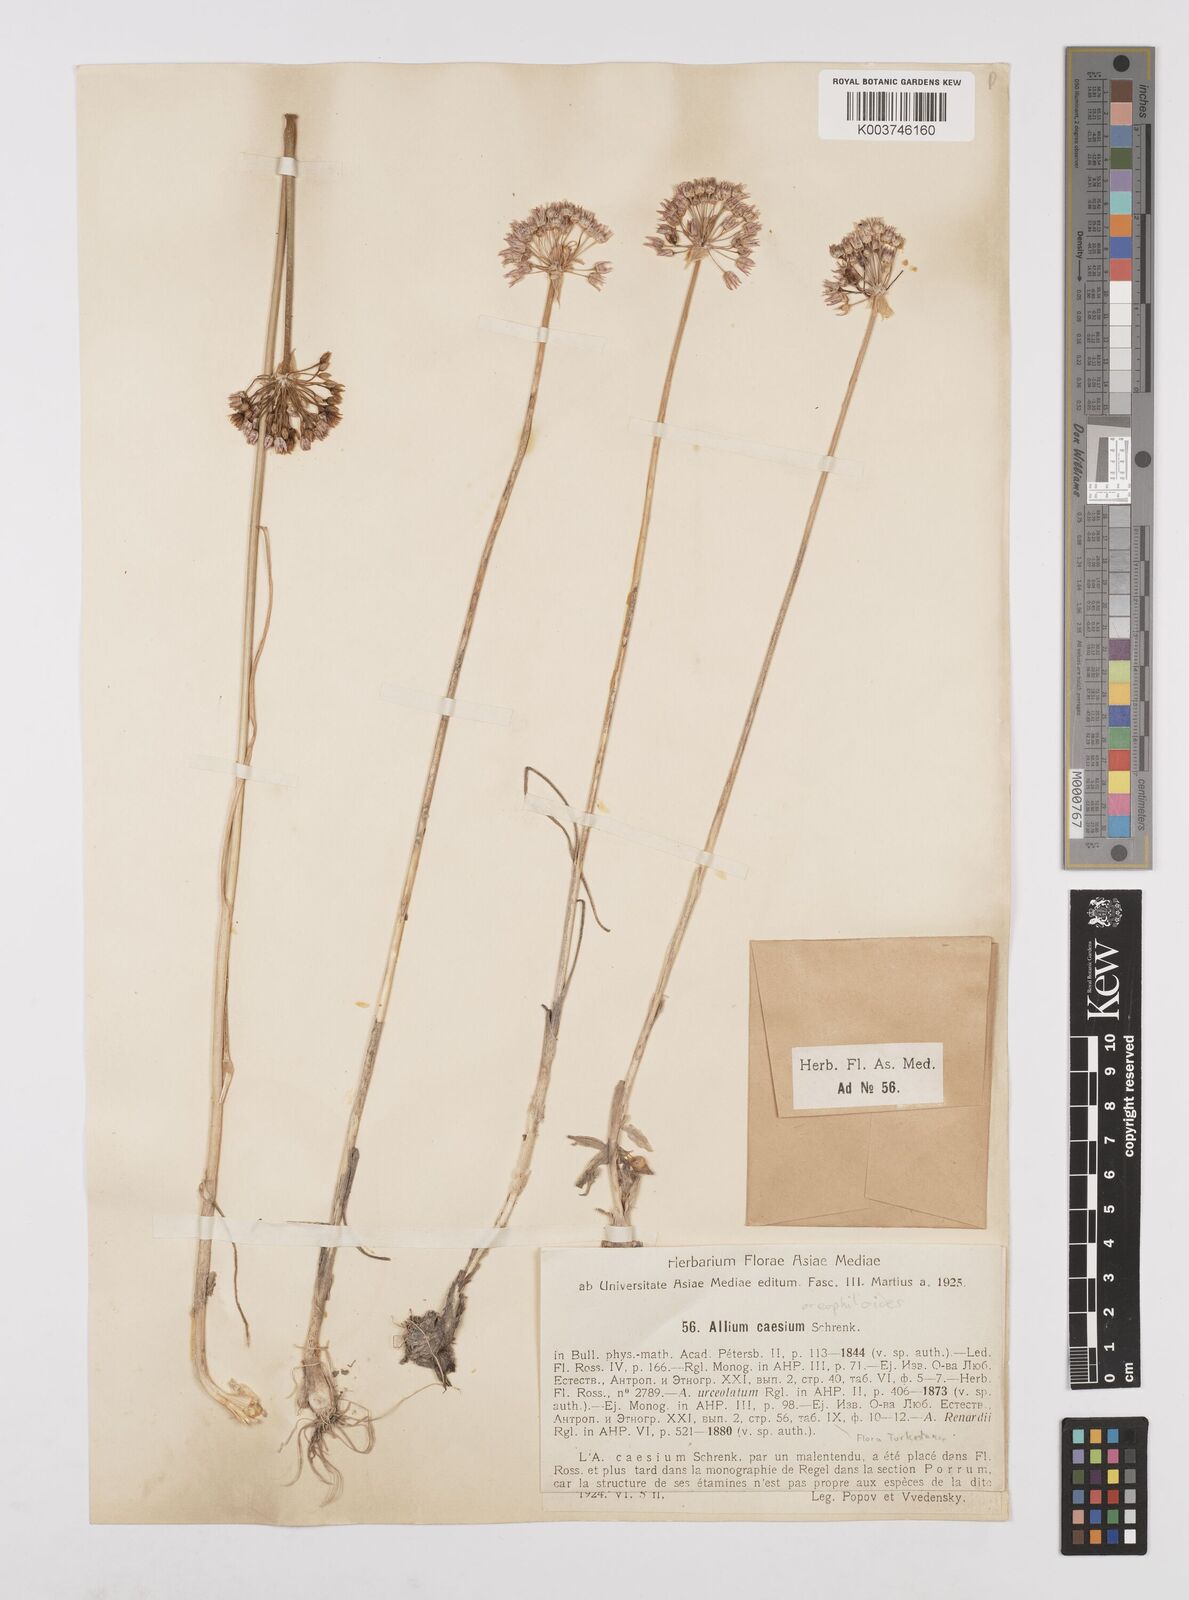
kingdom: Plantae
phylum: Tracheophyta
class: Liliopsida
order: Asparagales
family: Amaryllidaceae
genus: Allium
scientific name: Allium oreophiloides
